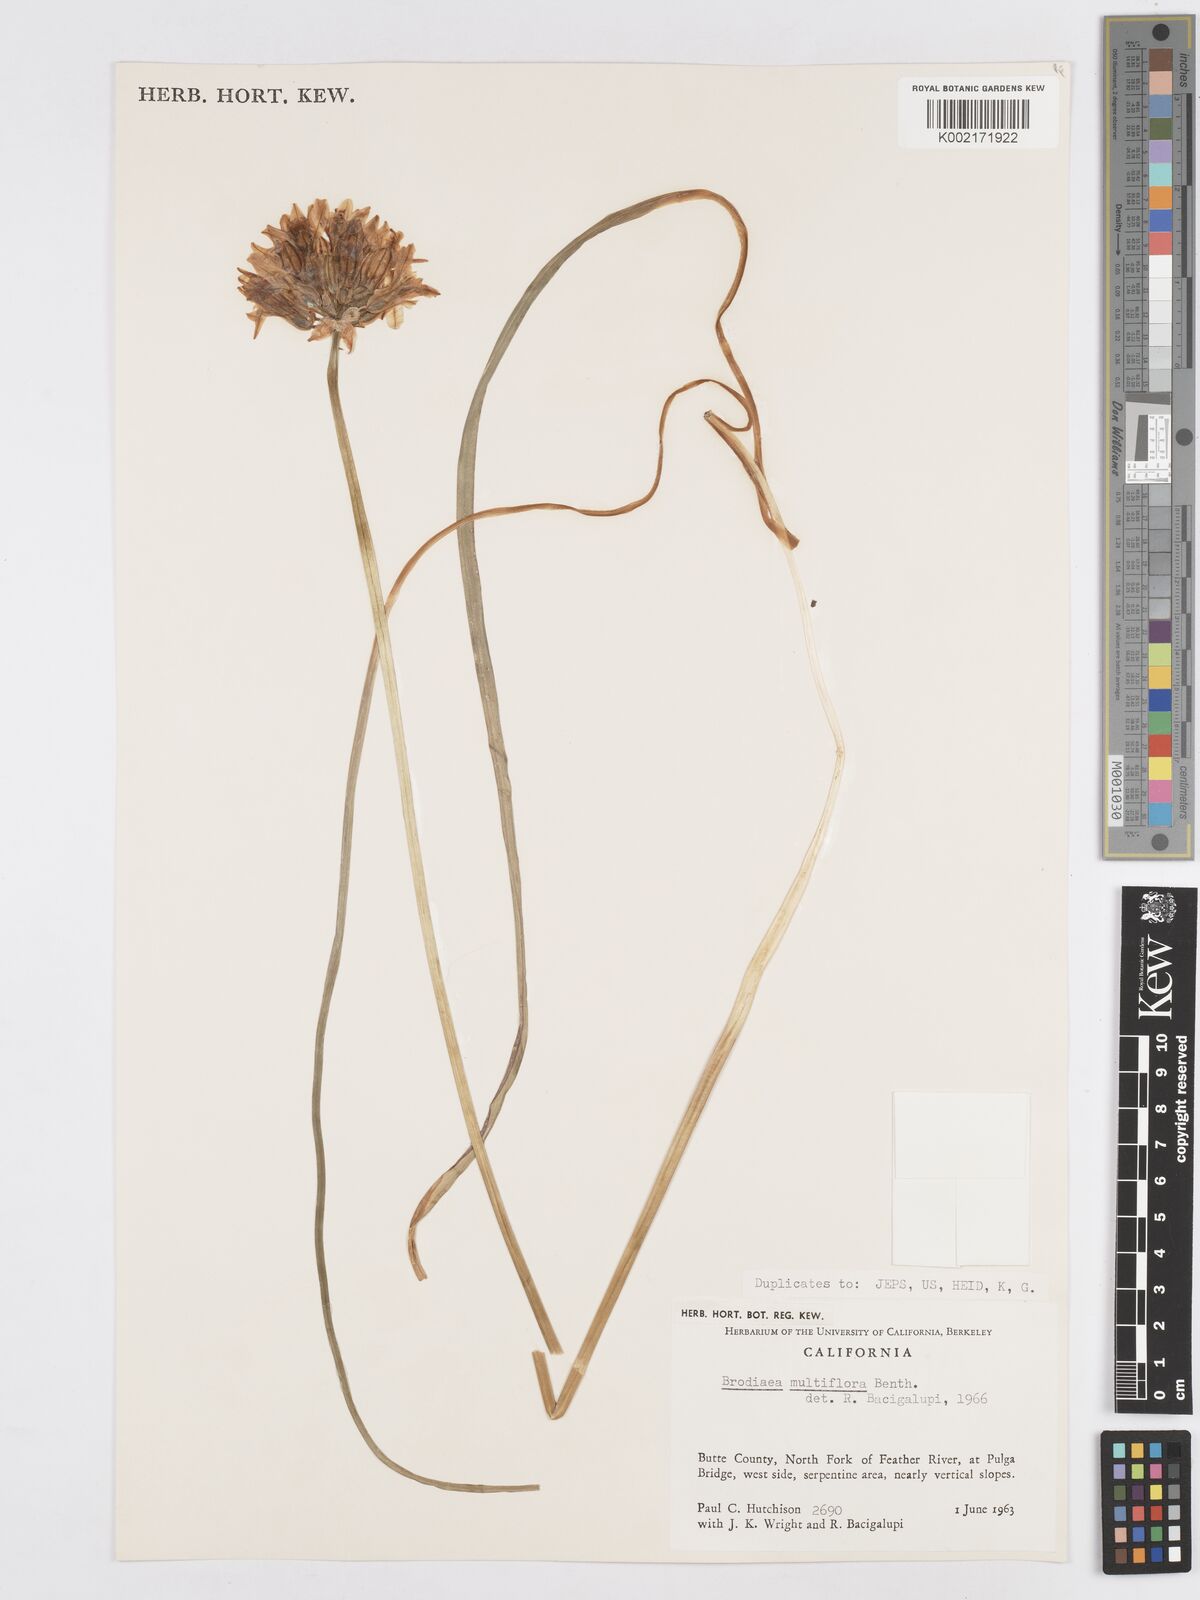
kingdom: Plantae
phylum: Tracheophyta
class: Liliopsida
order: Asparagales
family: Asparagaceae
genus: Dichelostemma
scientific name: Dichelostemma multiflorum
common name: Round-tooth ookow
